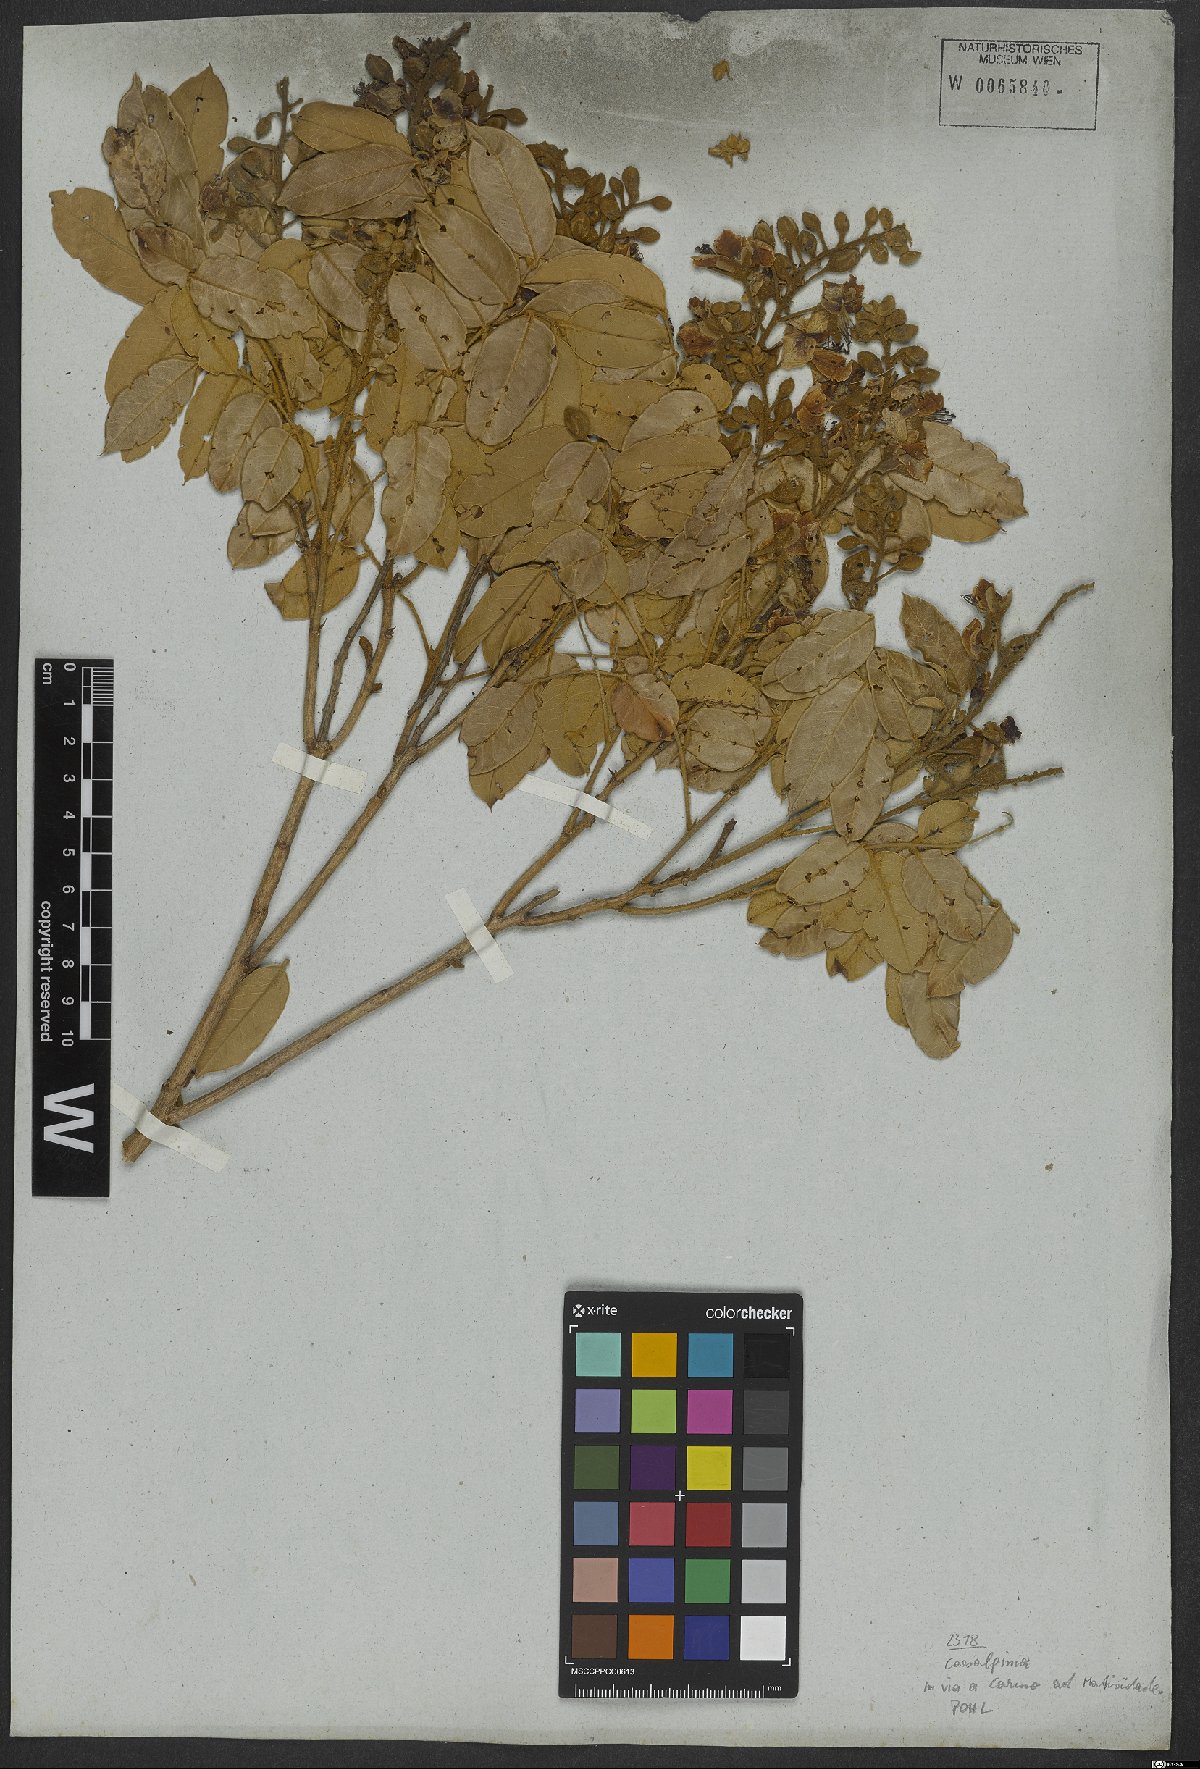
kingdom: Plantae
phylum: Tracheophyta
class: Magnoliopsida
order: Fabales
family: Fabaceae
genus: Caesalpinia
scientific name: Caesalpinia
